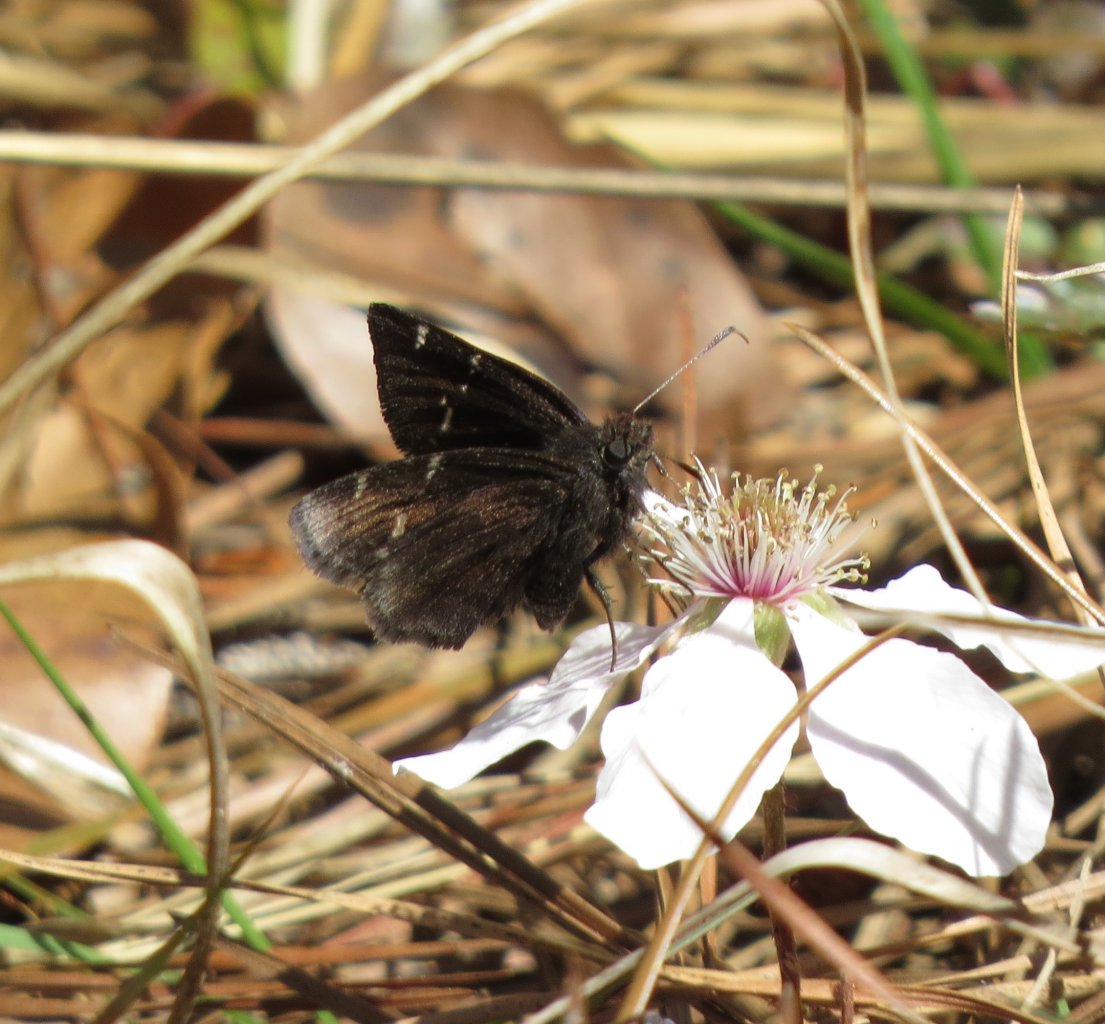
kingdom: Animalia
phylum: Arthropoda
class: Insecta
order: Lepidoptera
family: Hesperiidae
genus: Autochton
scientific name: Autochton
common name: Northern Cloudywing
